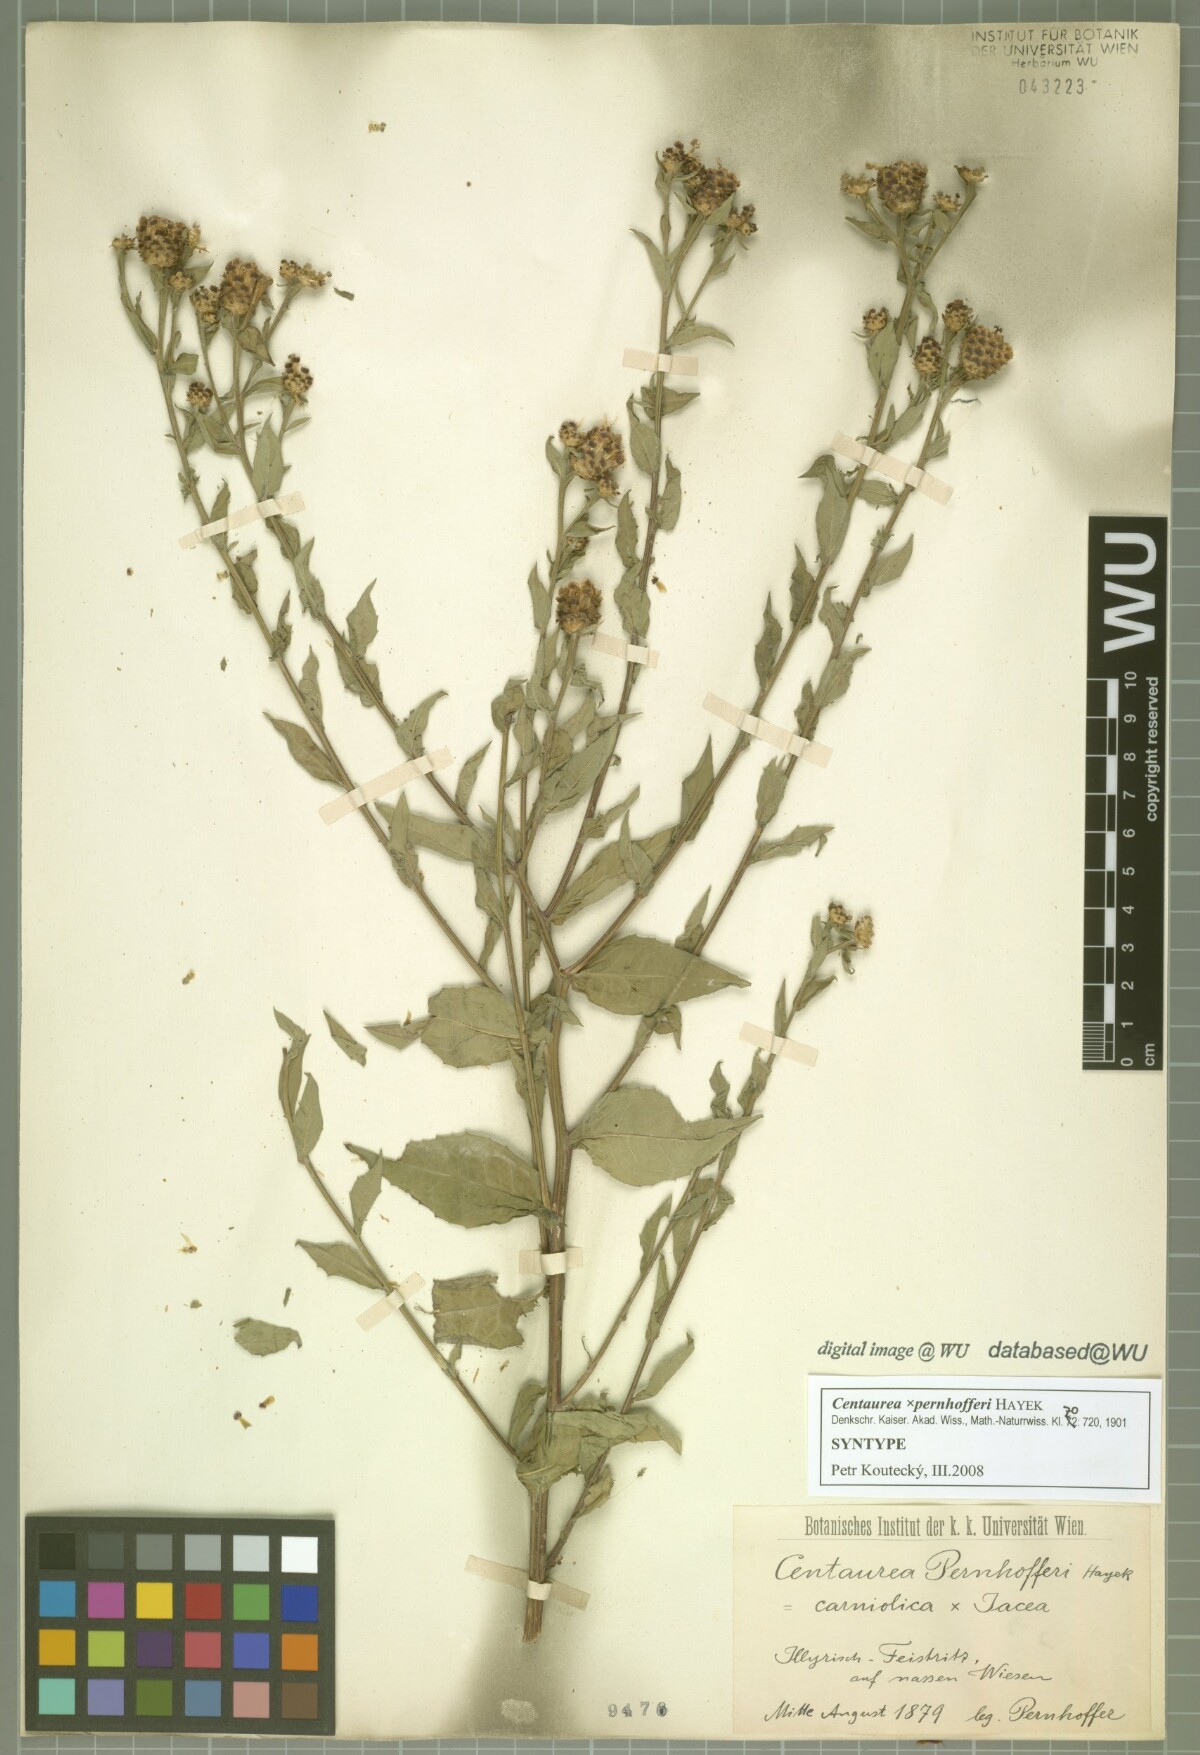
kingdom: Plantae
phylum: Tracheophyta
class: Magnoliopsida
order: Asterales
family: Asteraceae
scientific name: Asteraceae
